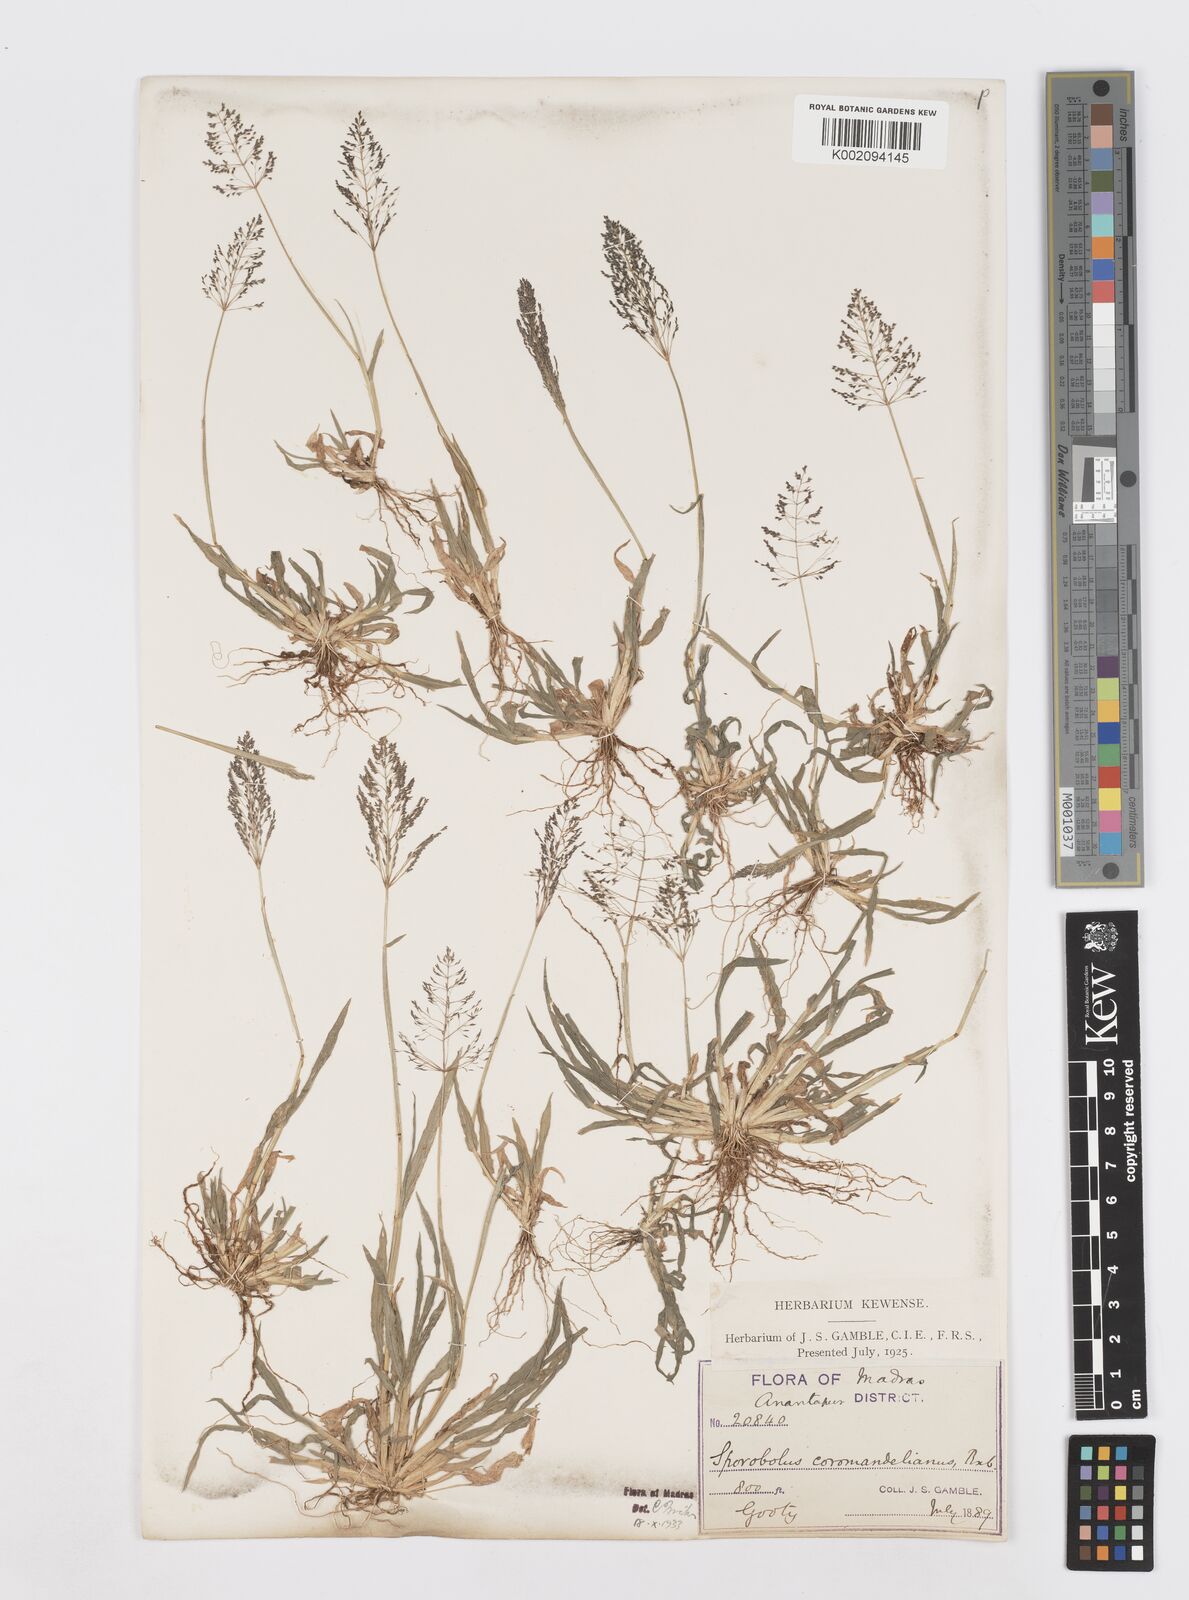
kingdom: Plantae
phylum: Tracheophyta
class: Liliopsida
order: Poales
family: Poaceae
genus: Sporobolus
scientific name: Sporobolus coromandelianus
